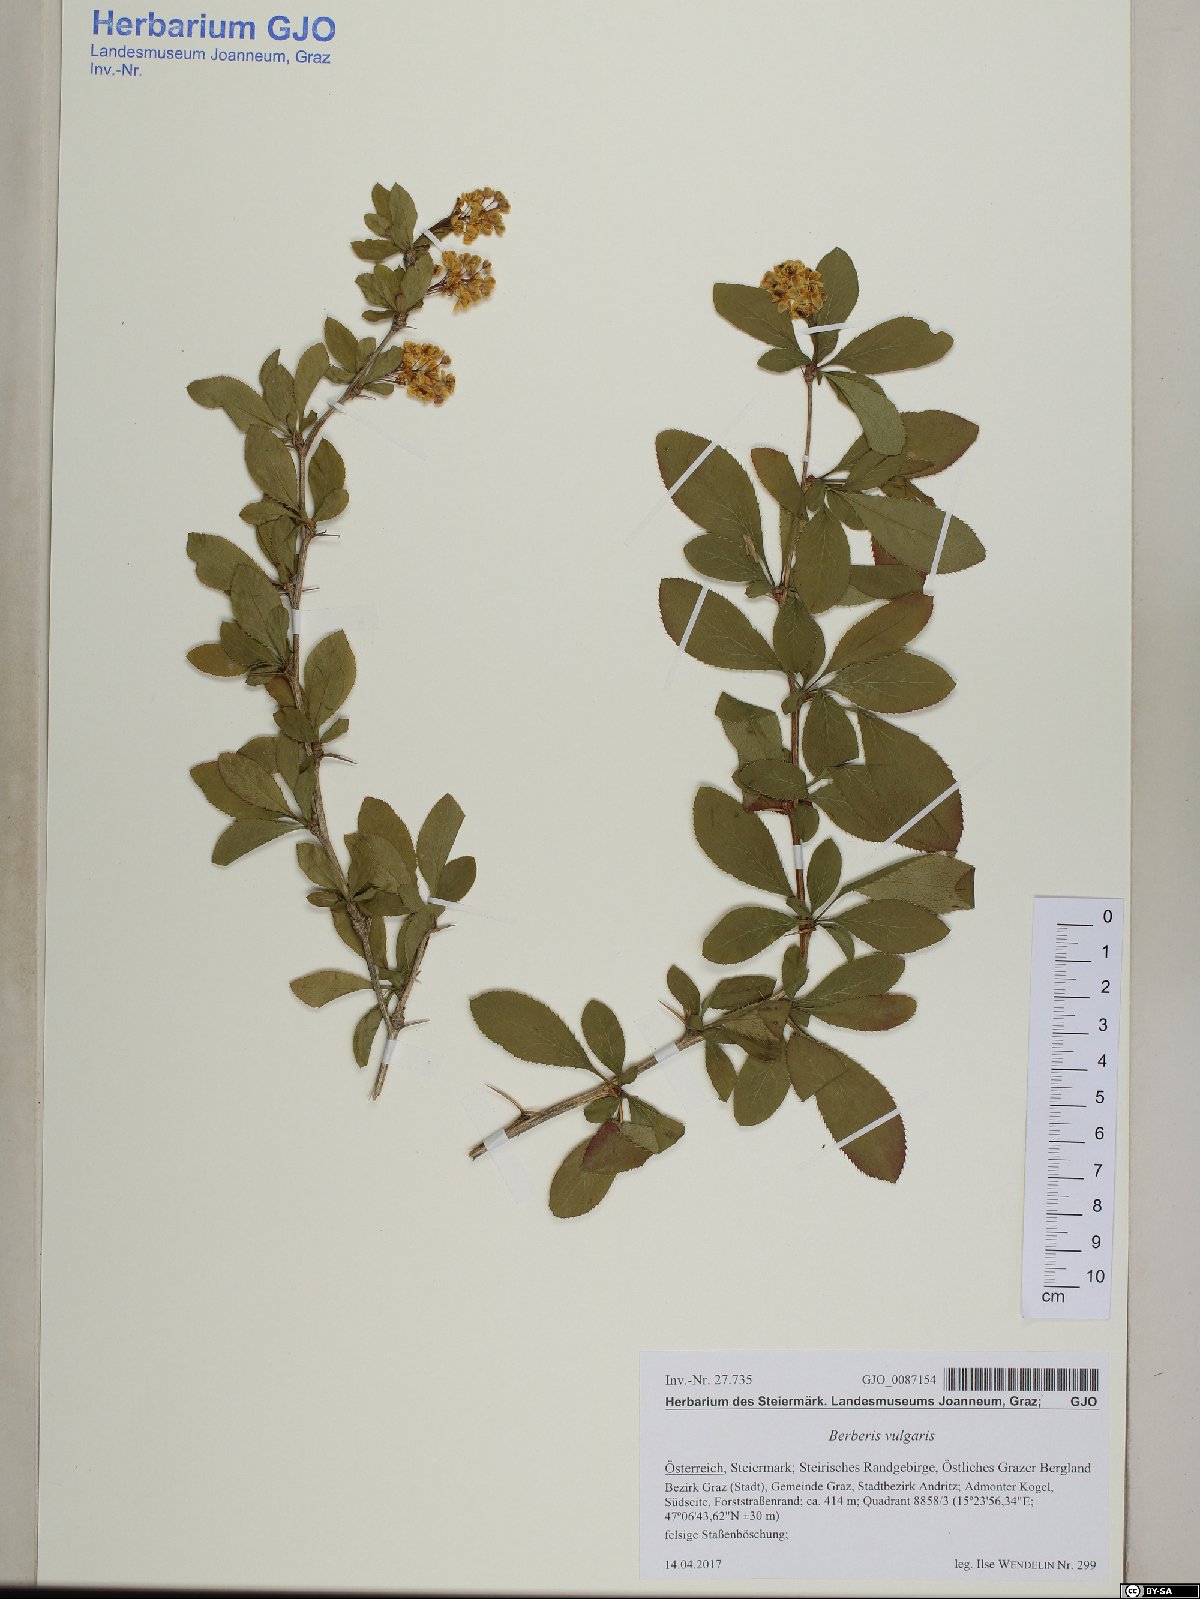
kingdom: Plantae
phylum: Tracheophyta
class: Magnoliopsida
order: Ranunculales
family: Berberidaceae
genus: Berberis
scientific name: Berberis vulgaris
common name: Barberry
